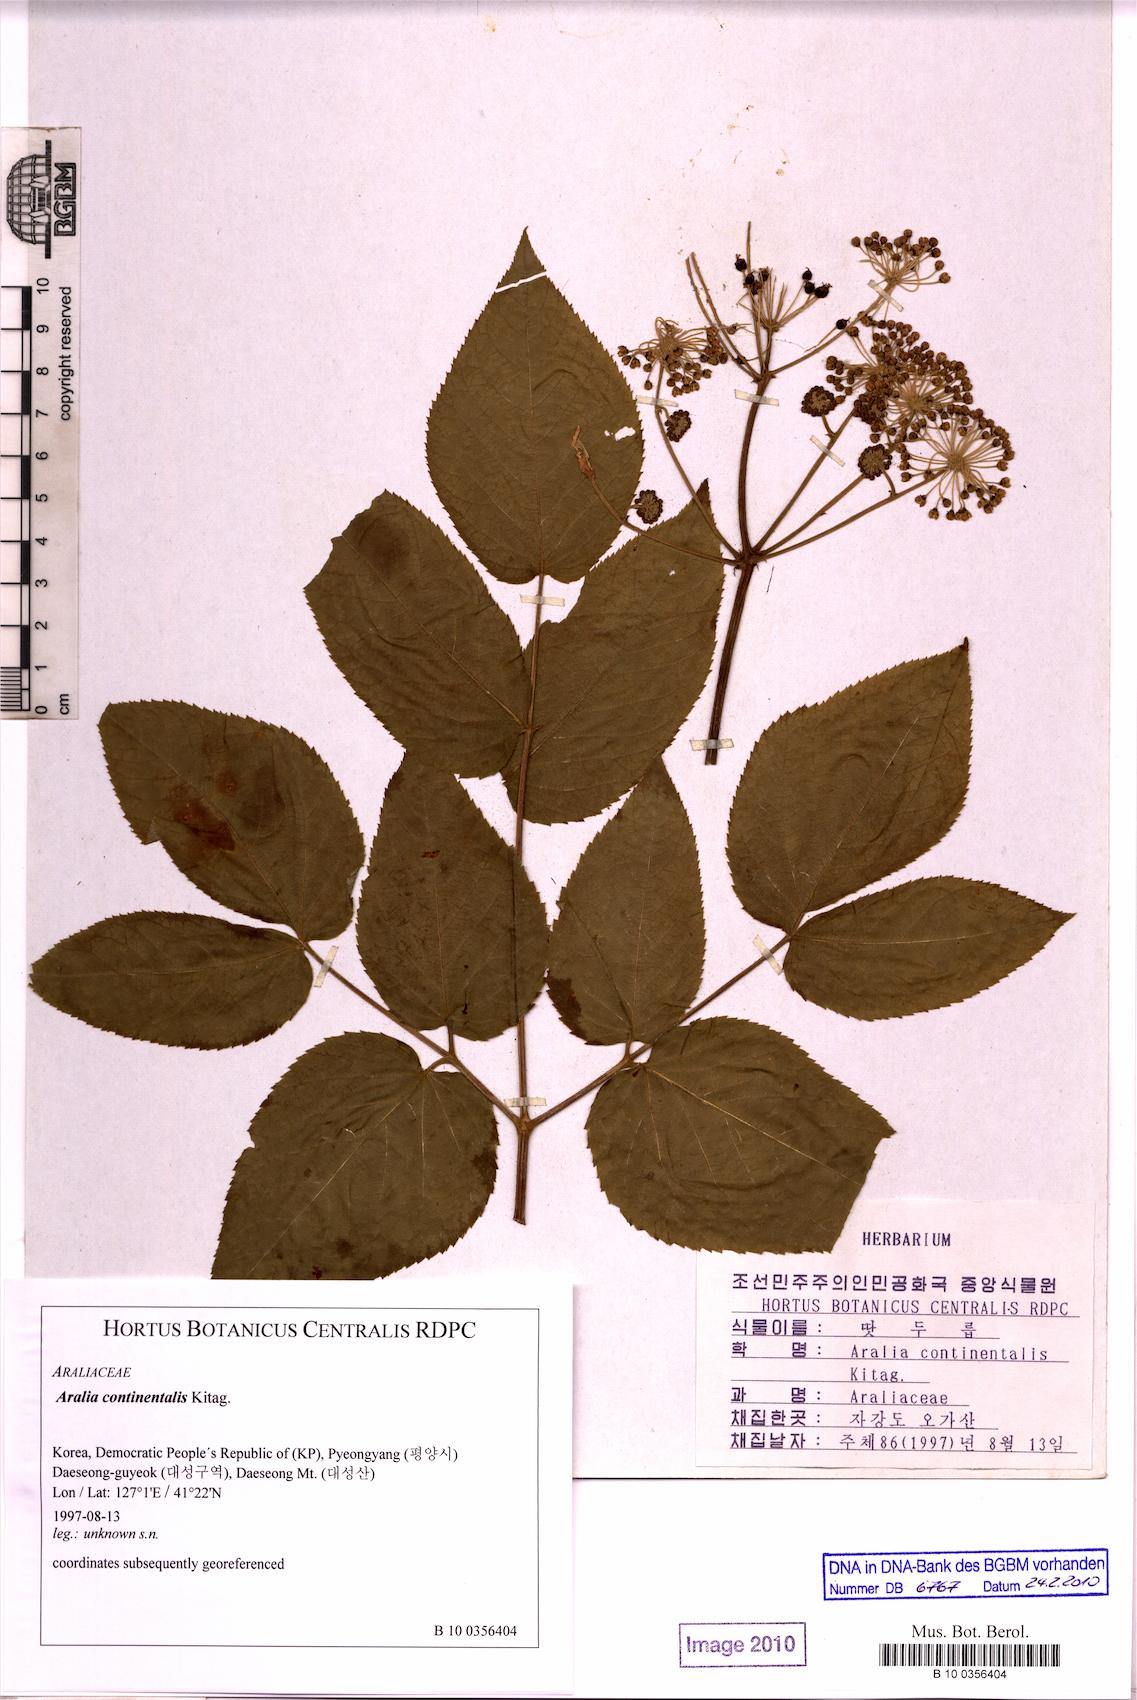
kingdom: Plantae
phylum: Tracheophyta
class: Magnoliopsida
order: Apiales
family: Araliaceae
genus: Aralia
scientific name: Aralia continentalis
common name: Manchurian-spikenard
